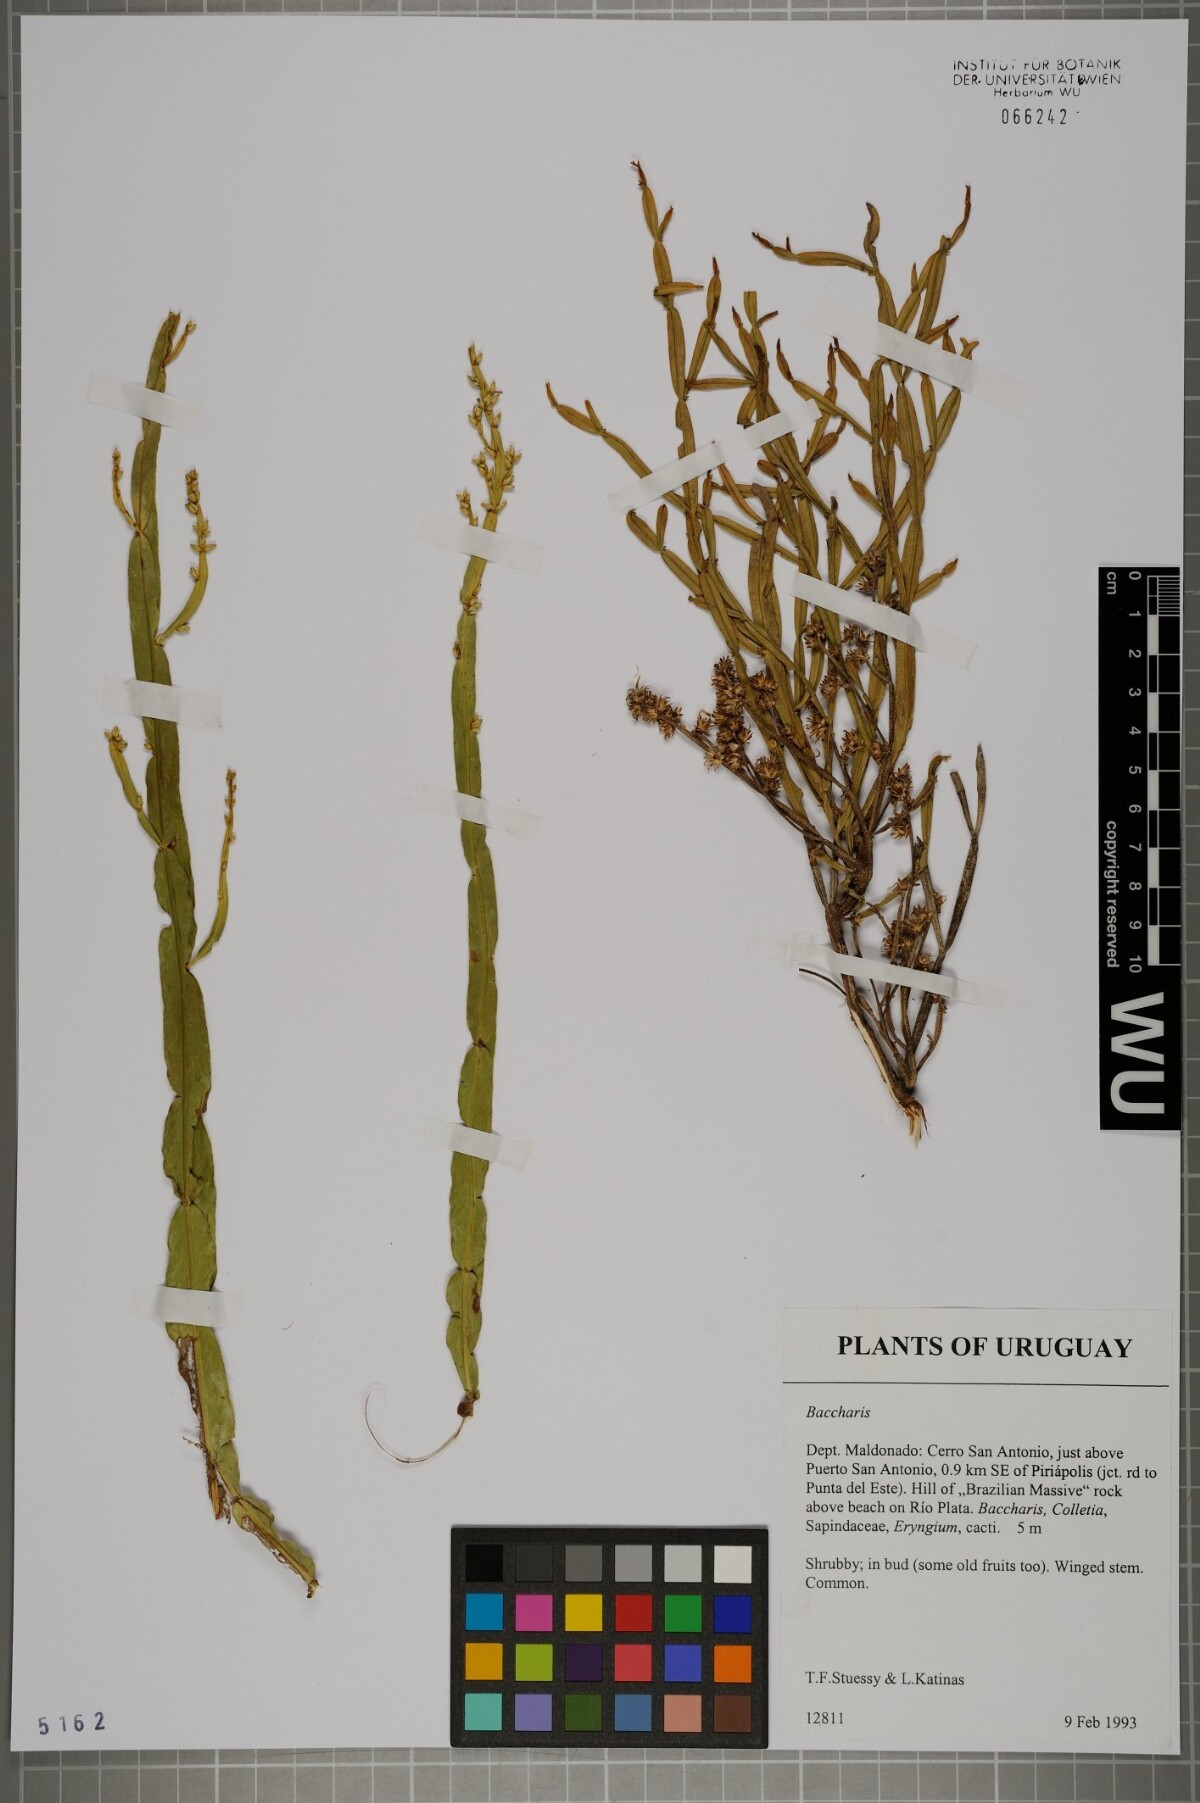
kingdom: Plantae
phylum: Tracheophyta
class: Magnoliopsida
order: Asterales
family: Asteraceae
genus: Baccharis
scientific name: Baccharis
